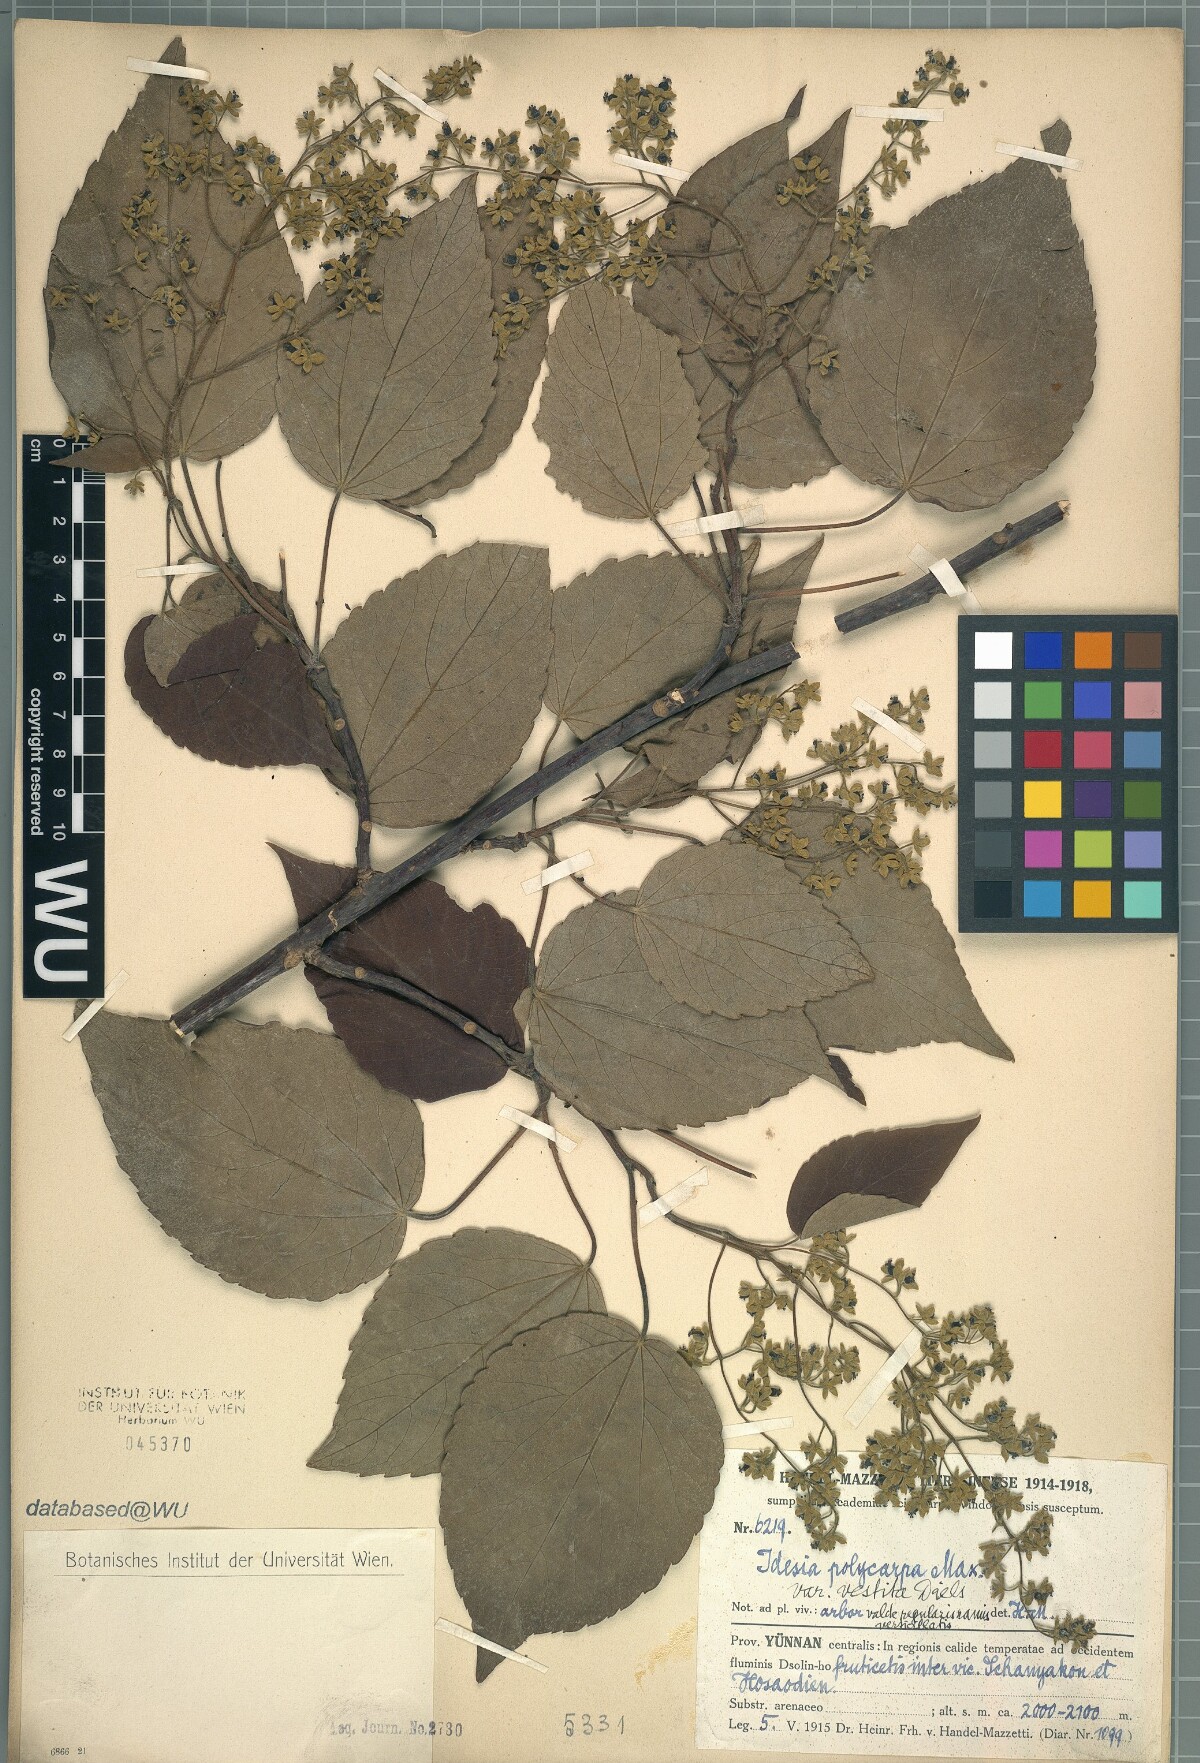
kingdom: Plantae
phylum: Tracheophyta
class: Magnoliopsida
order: Malpighiales
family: Salicaceae
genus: Idesia
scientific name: Idesia polycarpa
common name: Idesia tree
